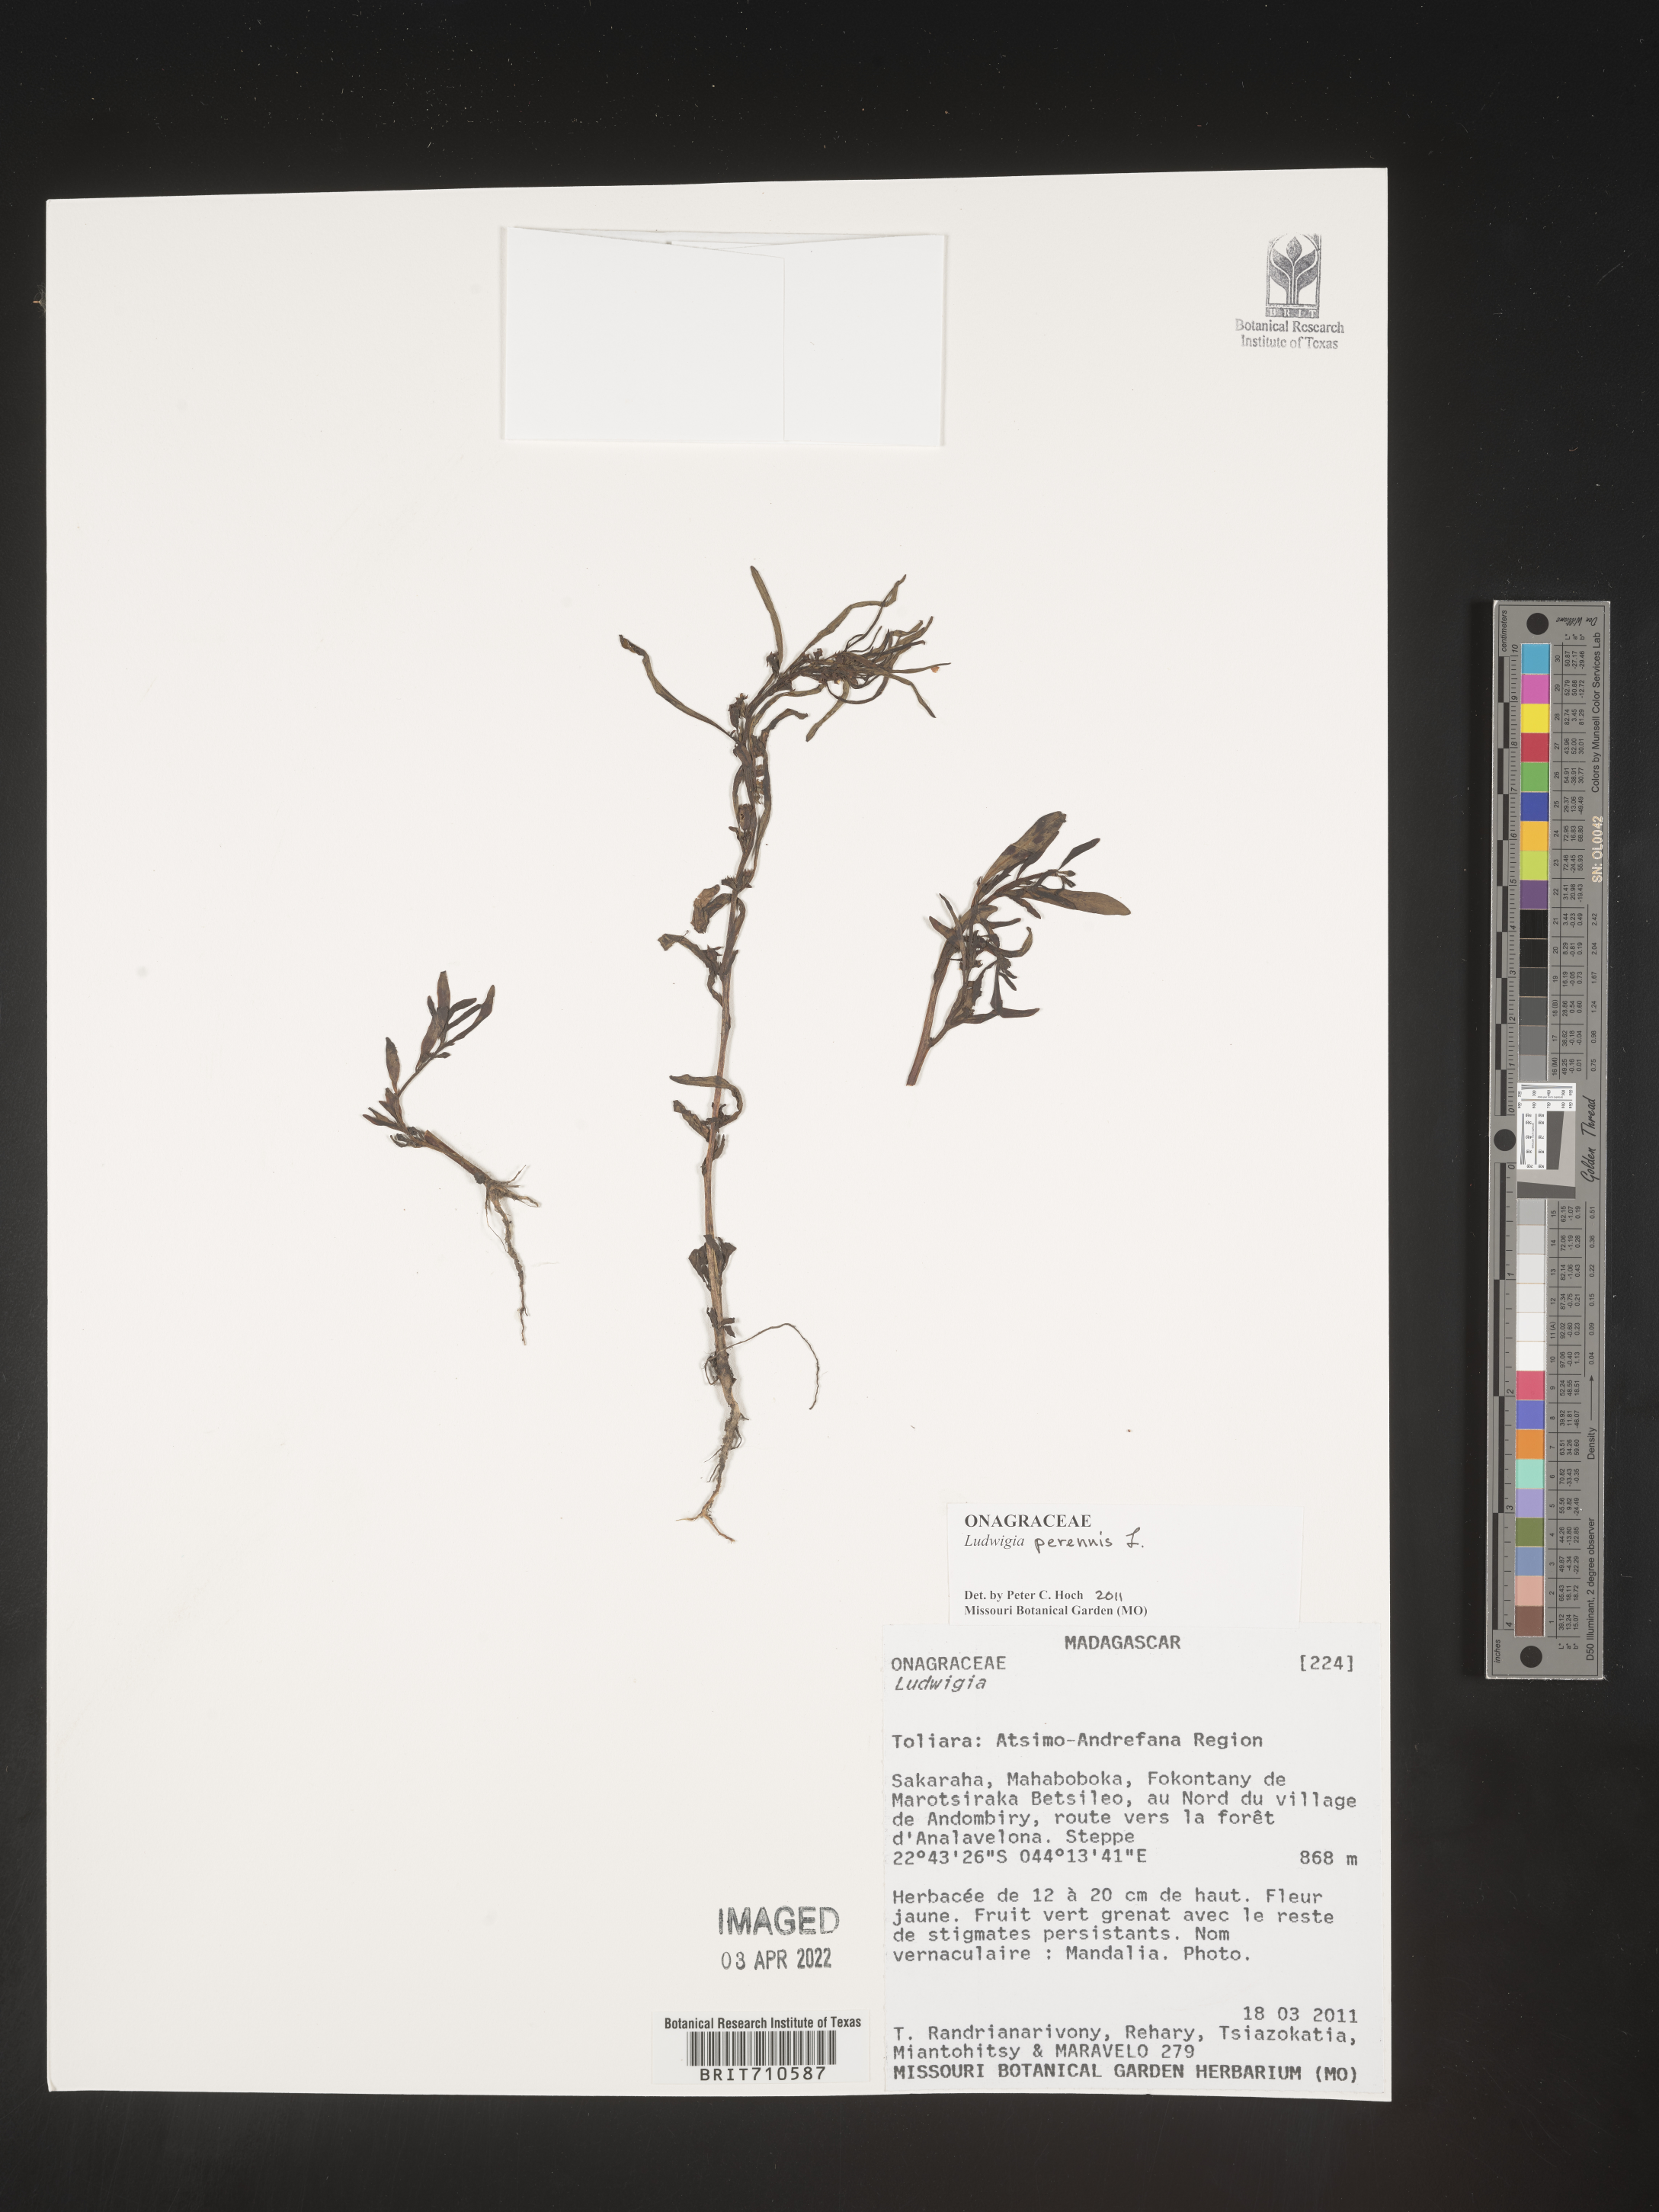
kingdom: Plantae
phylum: Tracheophyta
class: Magnoliopsida
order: Myrtales
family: Onagraceae
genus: Ludwigia
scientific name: Ludwigia
